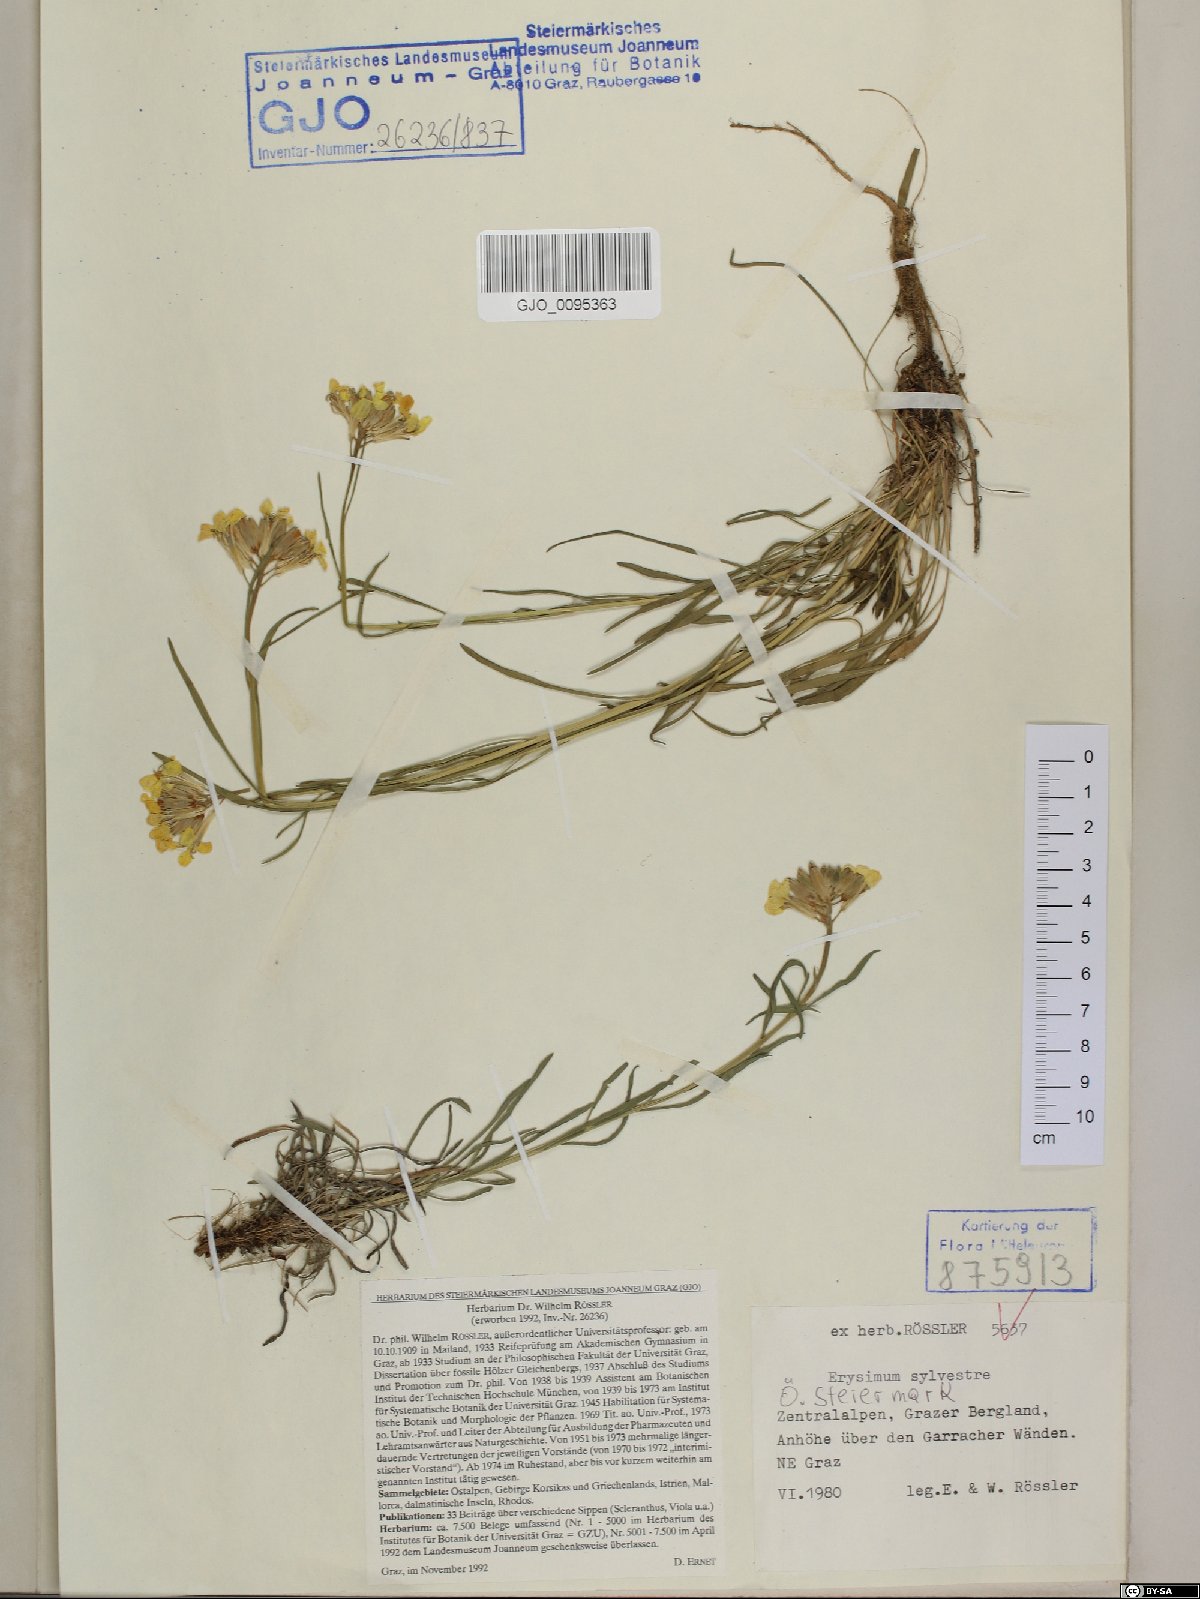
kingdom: Plantae
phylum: Tracheophyta
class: Magnoliopsida
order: Brassicales
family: Brassicaceae
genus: Erysimum
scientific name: Erysimum sylvestre
